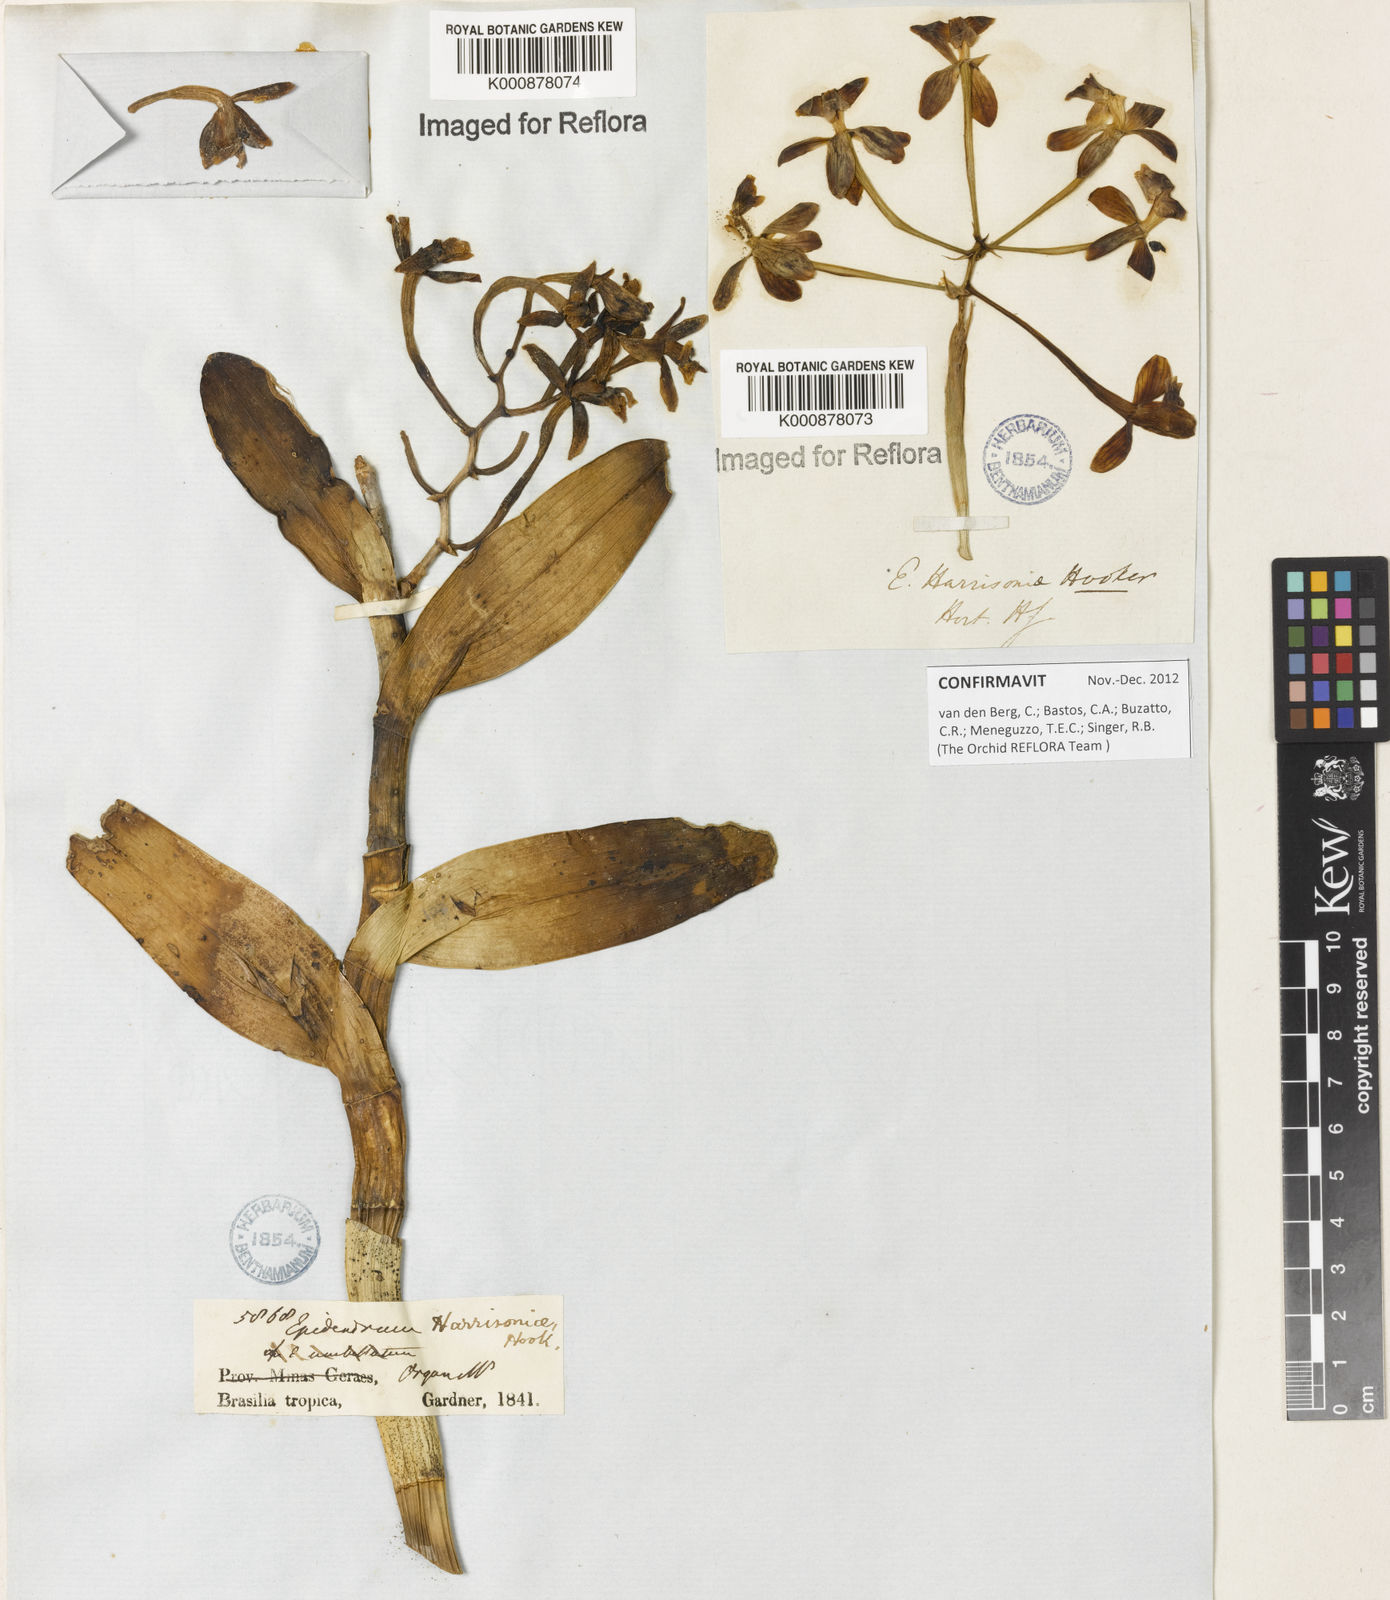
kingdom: Plantae
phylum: Tracheophyta
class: Liliopsida
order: Asparagales
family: Orchidaceae
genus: Epidendrum
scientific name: Epidendrum harrisoniae
